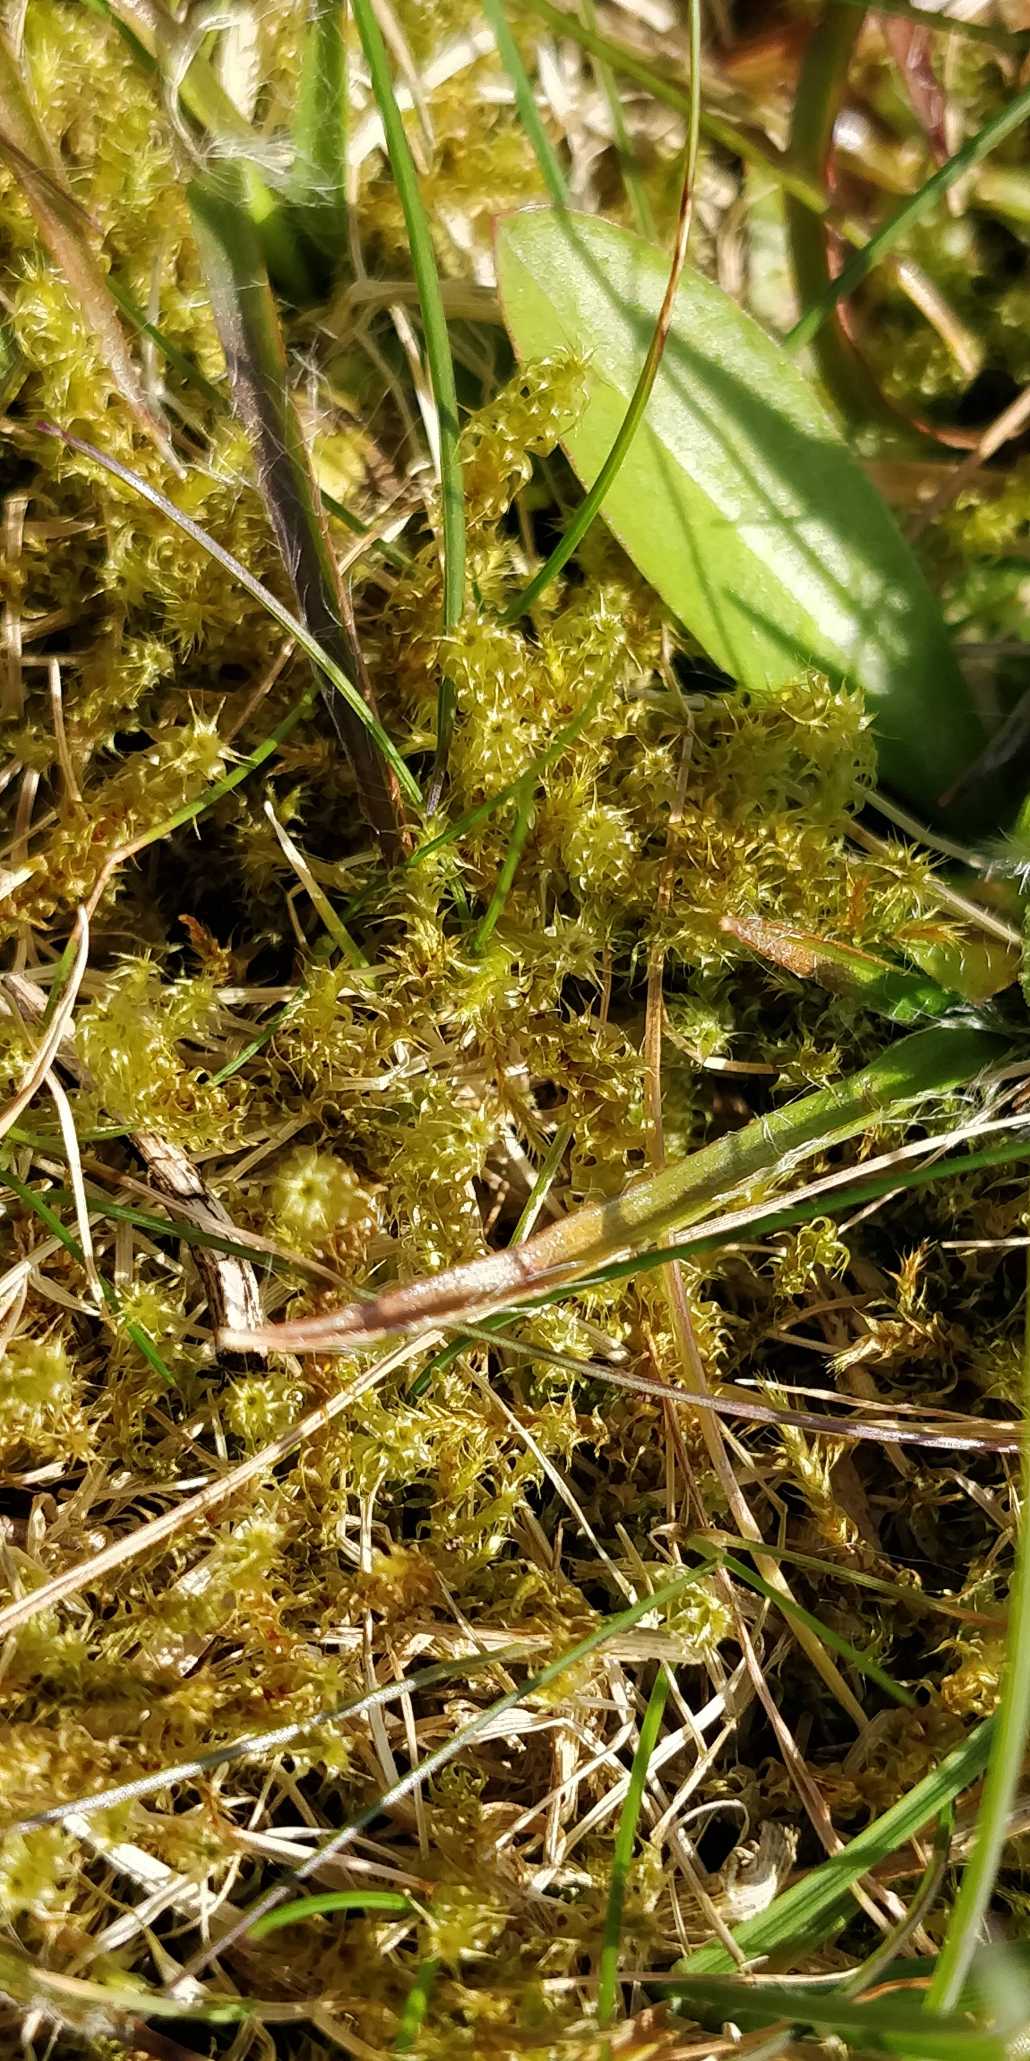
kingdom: Plantae
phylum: Bryophyta
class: Bryopsida
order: Hypnales
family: Hylocomiaceae
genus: Rhytidiadelphus
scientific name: Rhytidiadelphus squarrosus
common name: Plæne-kransemos
